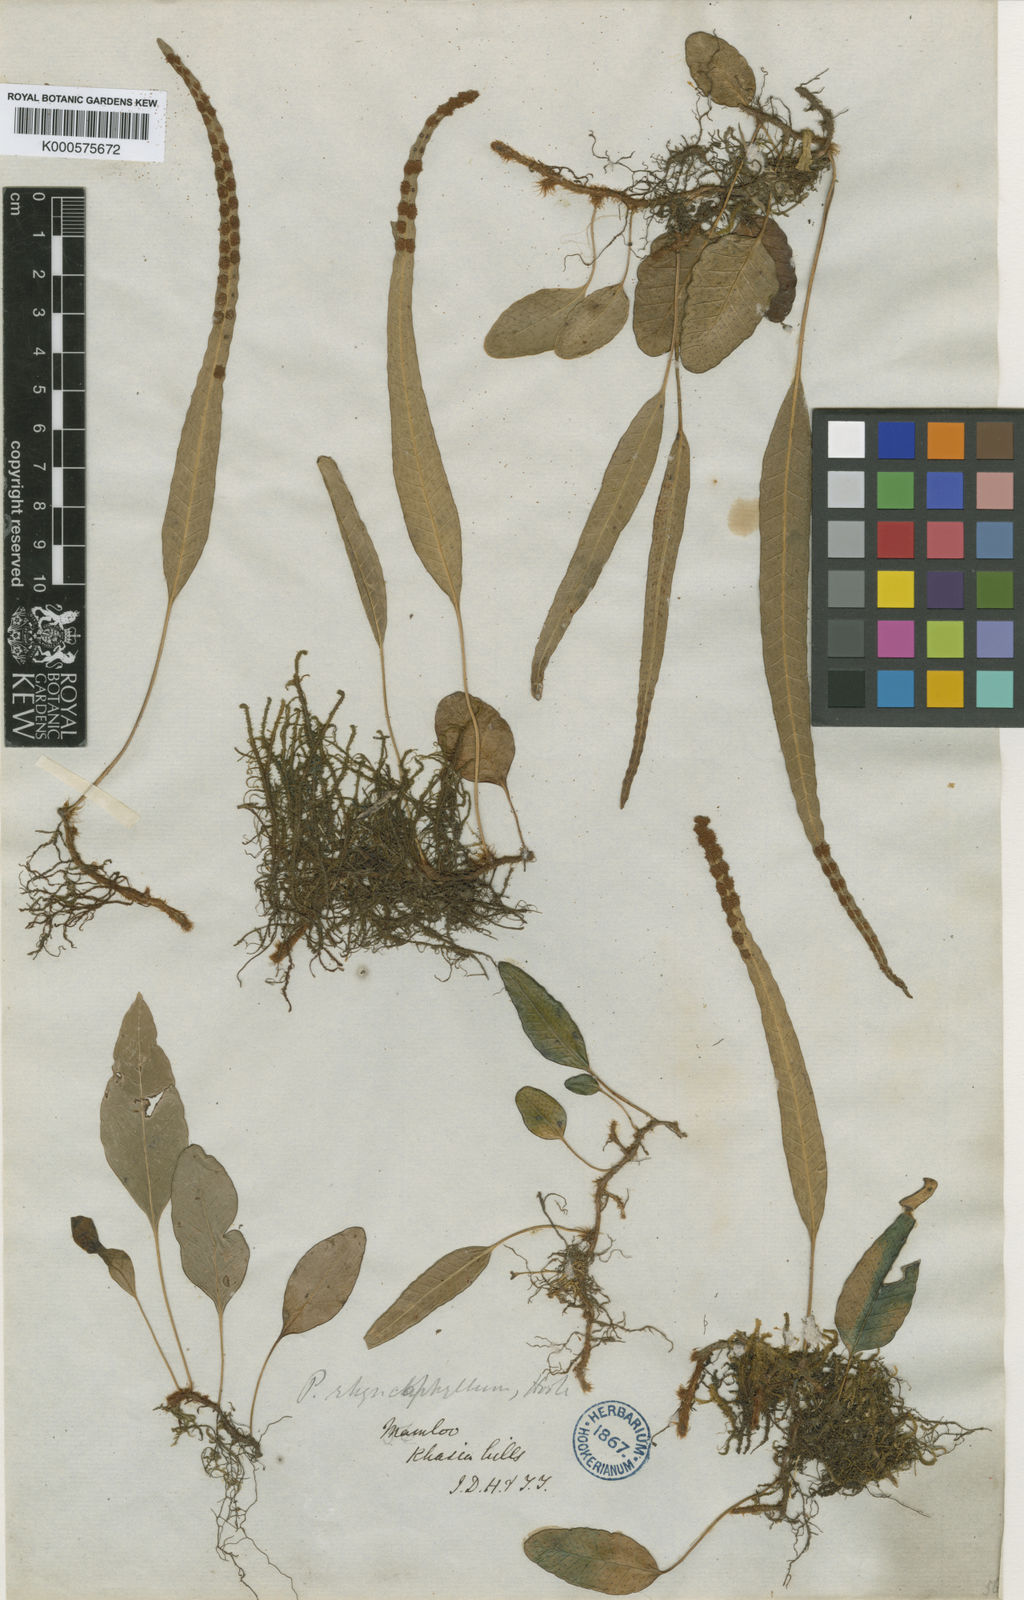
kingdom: Plantae
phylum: Tracheophyta
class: Polypodiopsida
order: Polypodiales
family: Polypodiaceae
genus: Selliguea
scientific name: Selliguea
